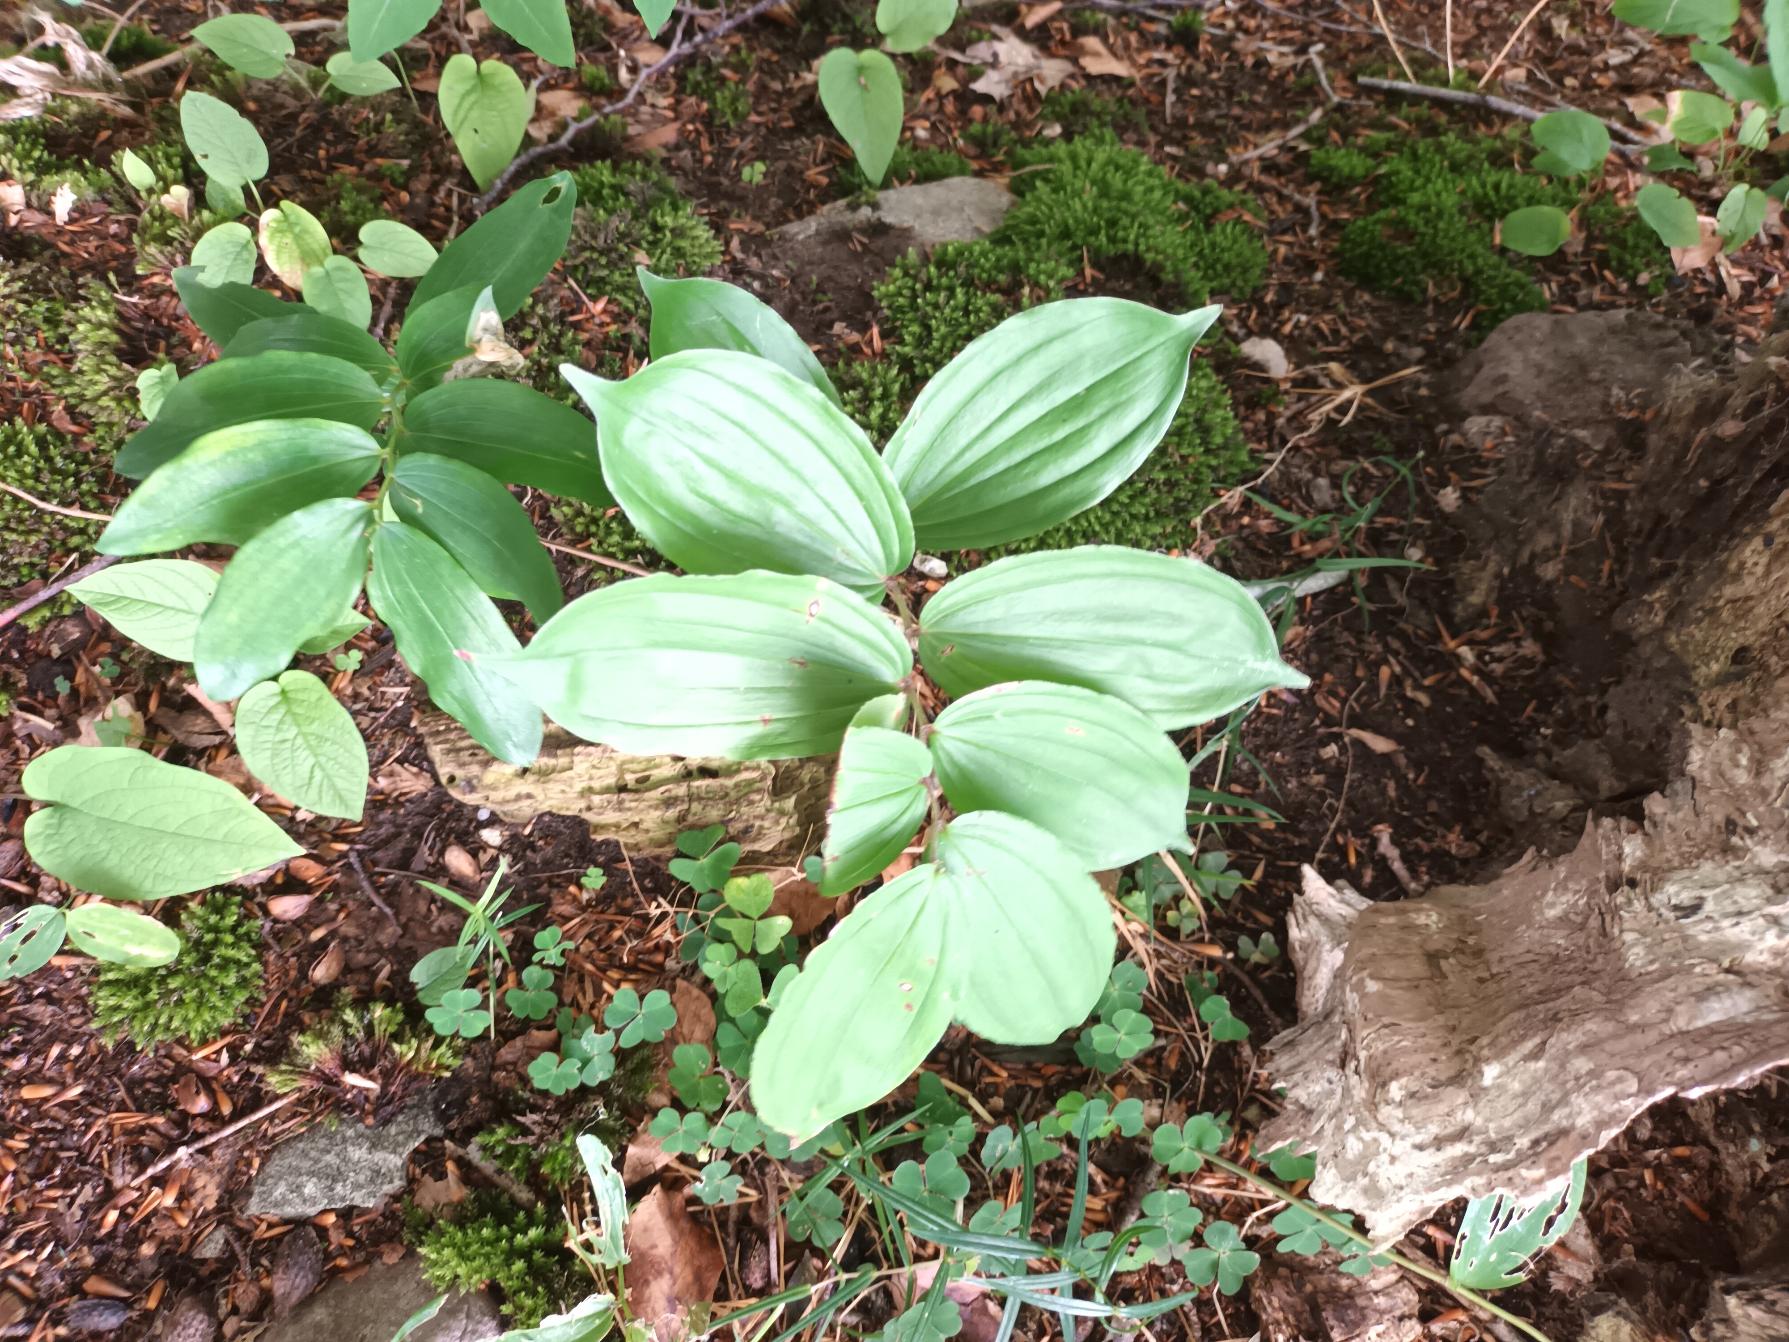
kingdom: Plantae
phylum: Tracheophyta
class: Liliopsida
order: Liliales
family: Liliaceae
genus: Streptopus
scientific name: Streptopus amplexifolius
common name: Bugtet fjeldkonval
